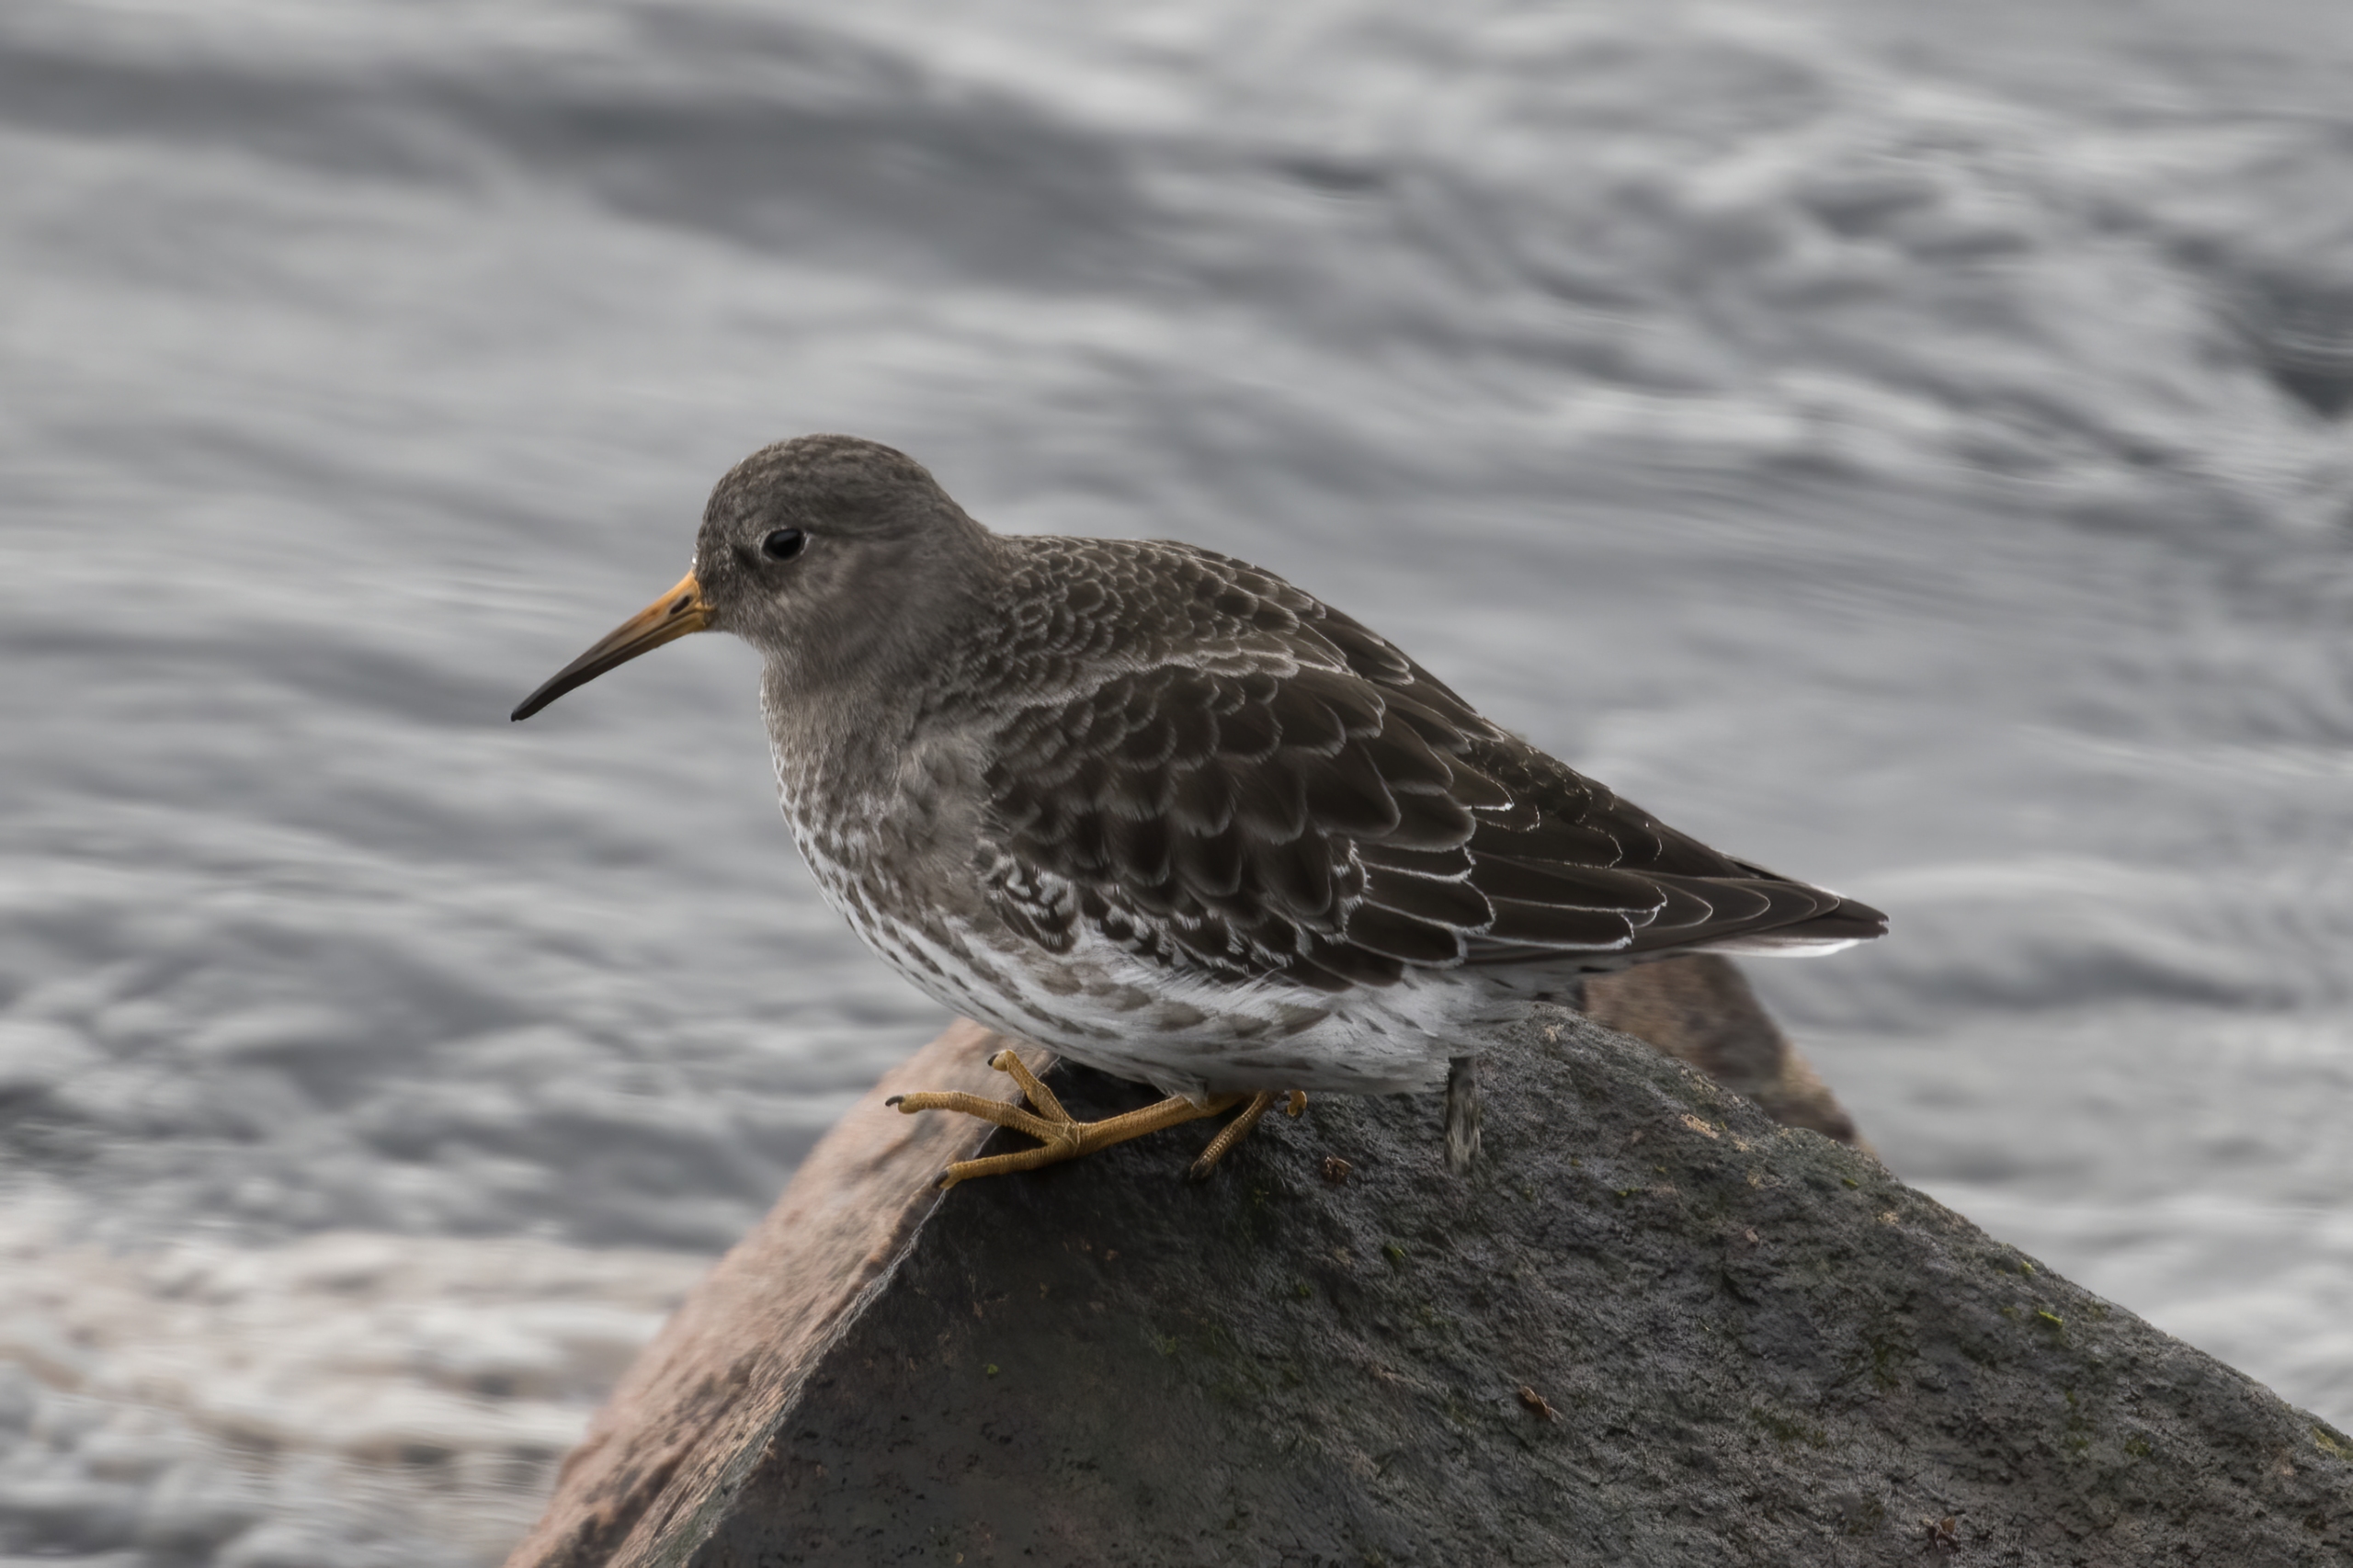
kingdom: Animalia
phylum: Chordata
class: Aves
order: Charadriiformes
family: Scolopacidae
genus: Calidris
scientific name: Calidris maritima
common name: Sortgrå ryle
